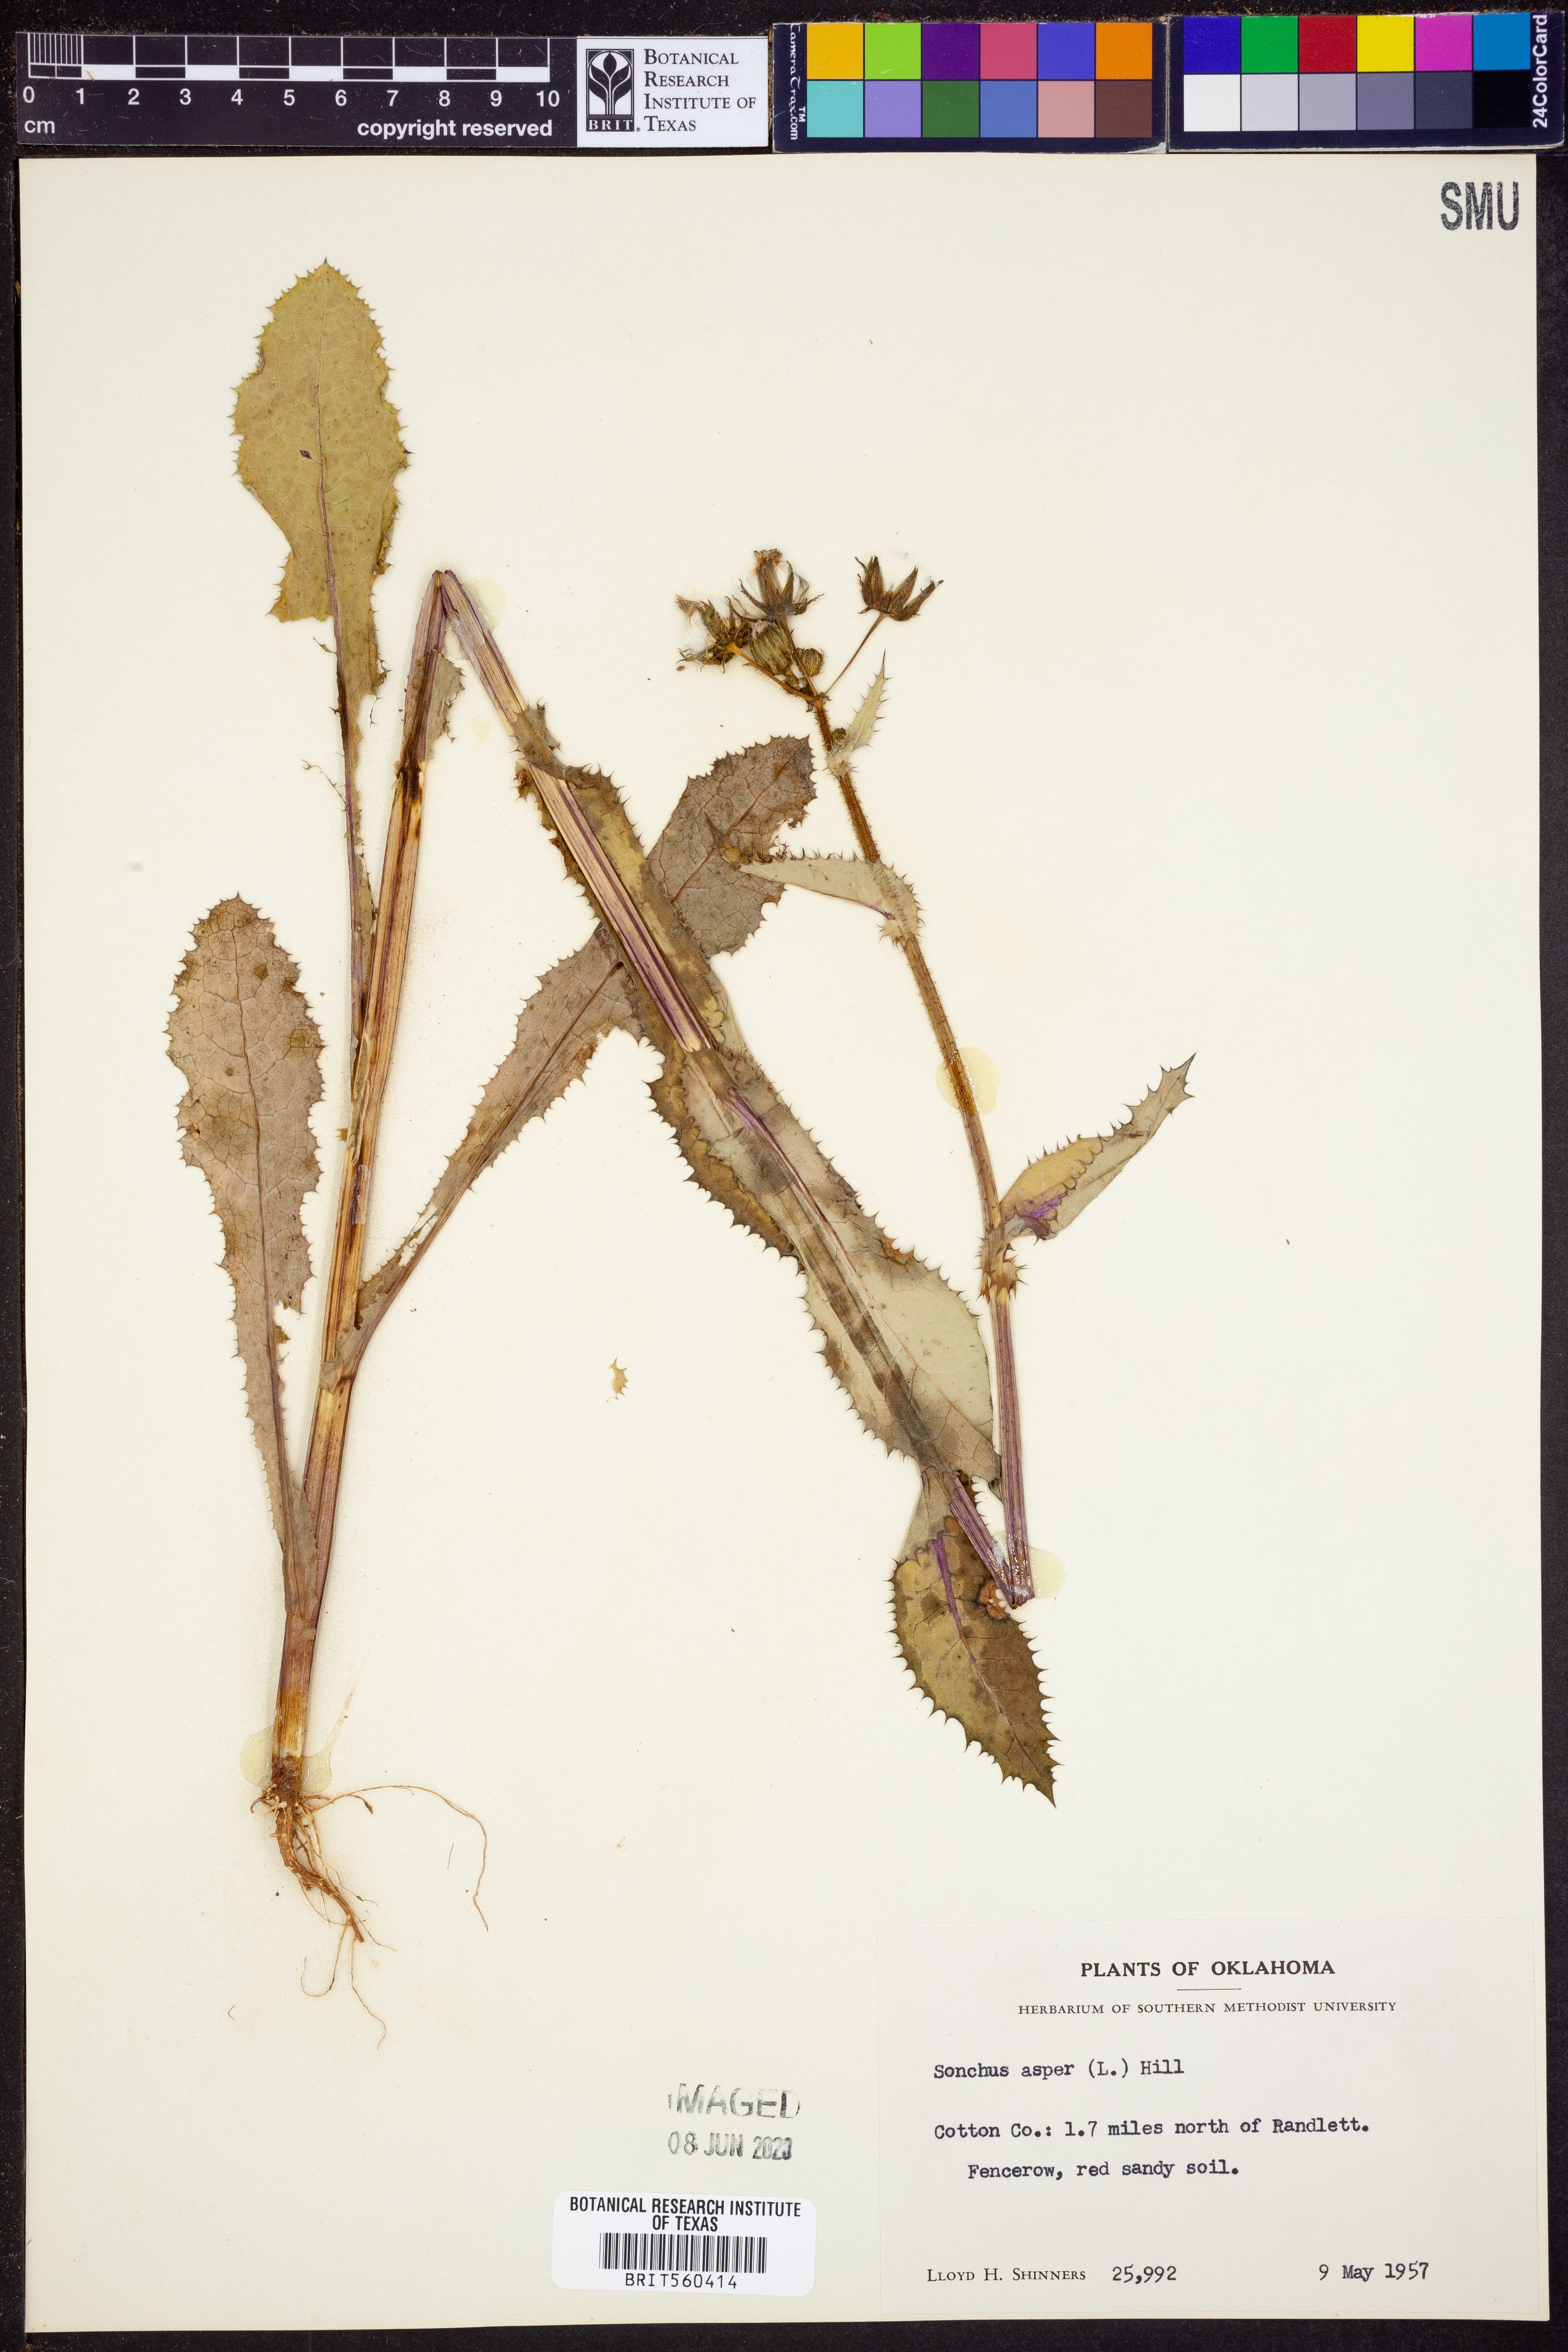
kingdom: Plantae
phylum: Tracheophyta
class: Magnoliopsida
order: Asterales
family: Asteraceae
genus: Sonchus
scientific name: Sonchus asper
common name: Prickly sow-thistle
